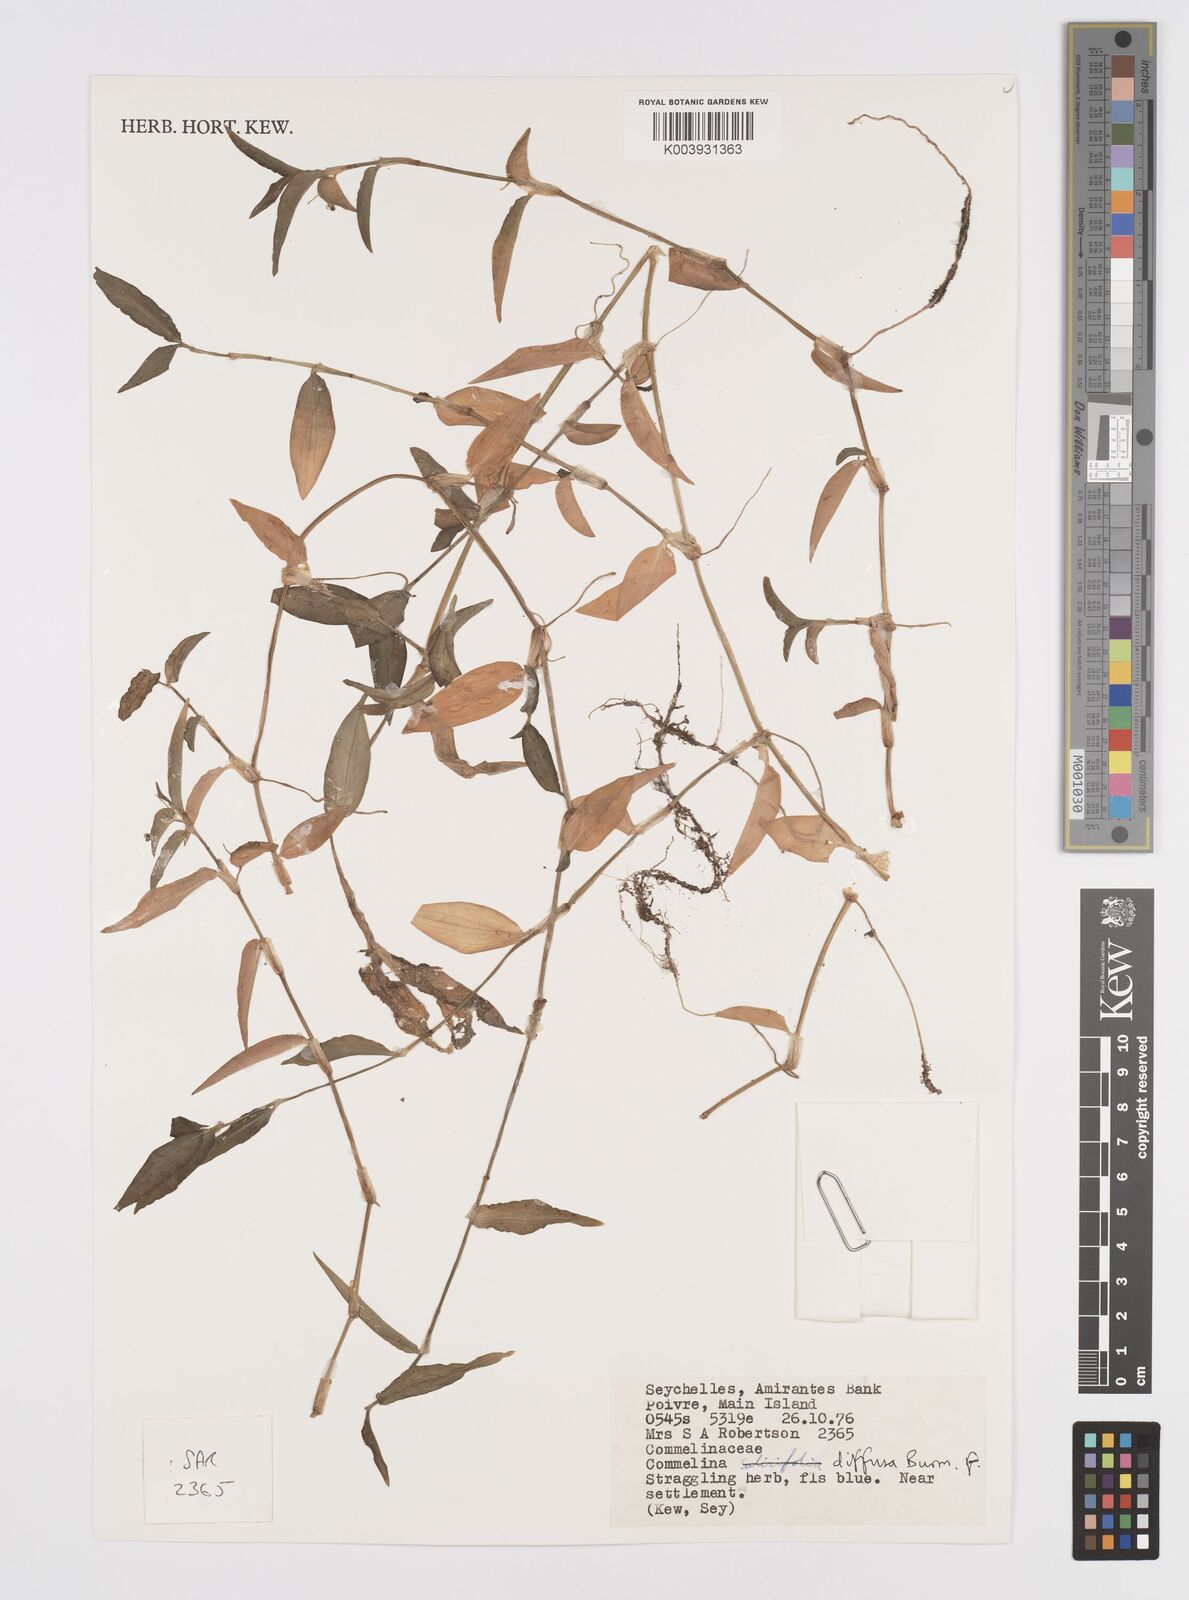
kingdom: Plantae
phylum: Tracheophyta
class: Liliopsida
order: Commelinales
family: Commelinaceae
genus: Murdannia
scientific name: Murdannia nudiflora
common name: Nakedstem dewflower
